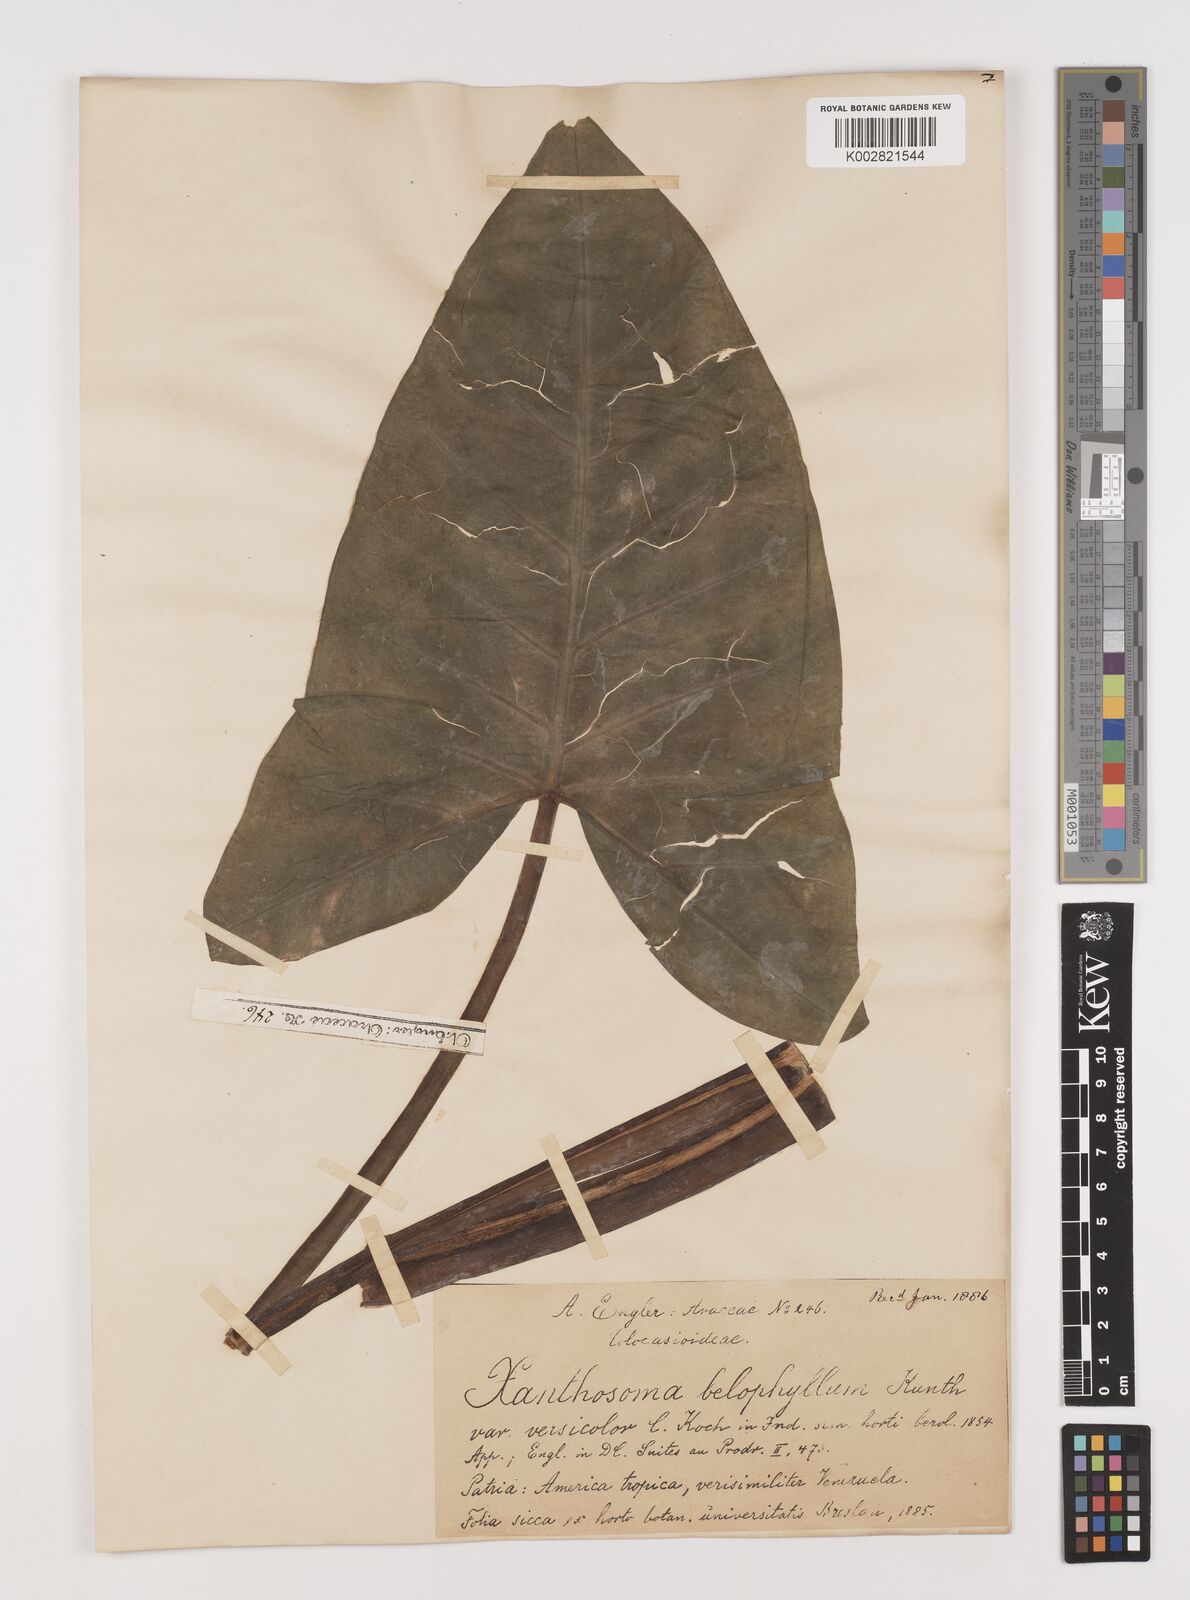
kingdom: Plantae
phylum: Tracheophyta
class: Liliopsida
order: Alismatales
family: Araceae
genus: Xanthosoma
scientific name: Xanthosoma belophyllum
